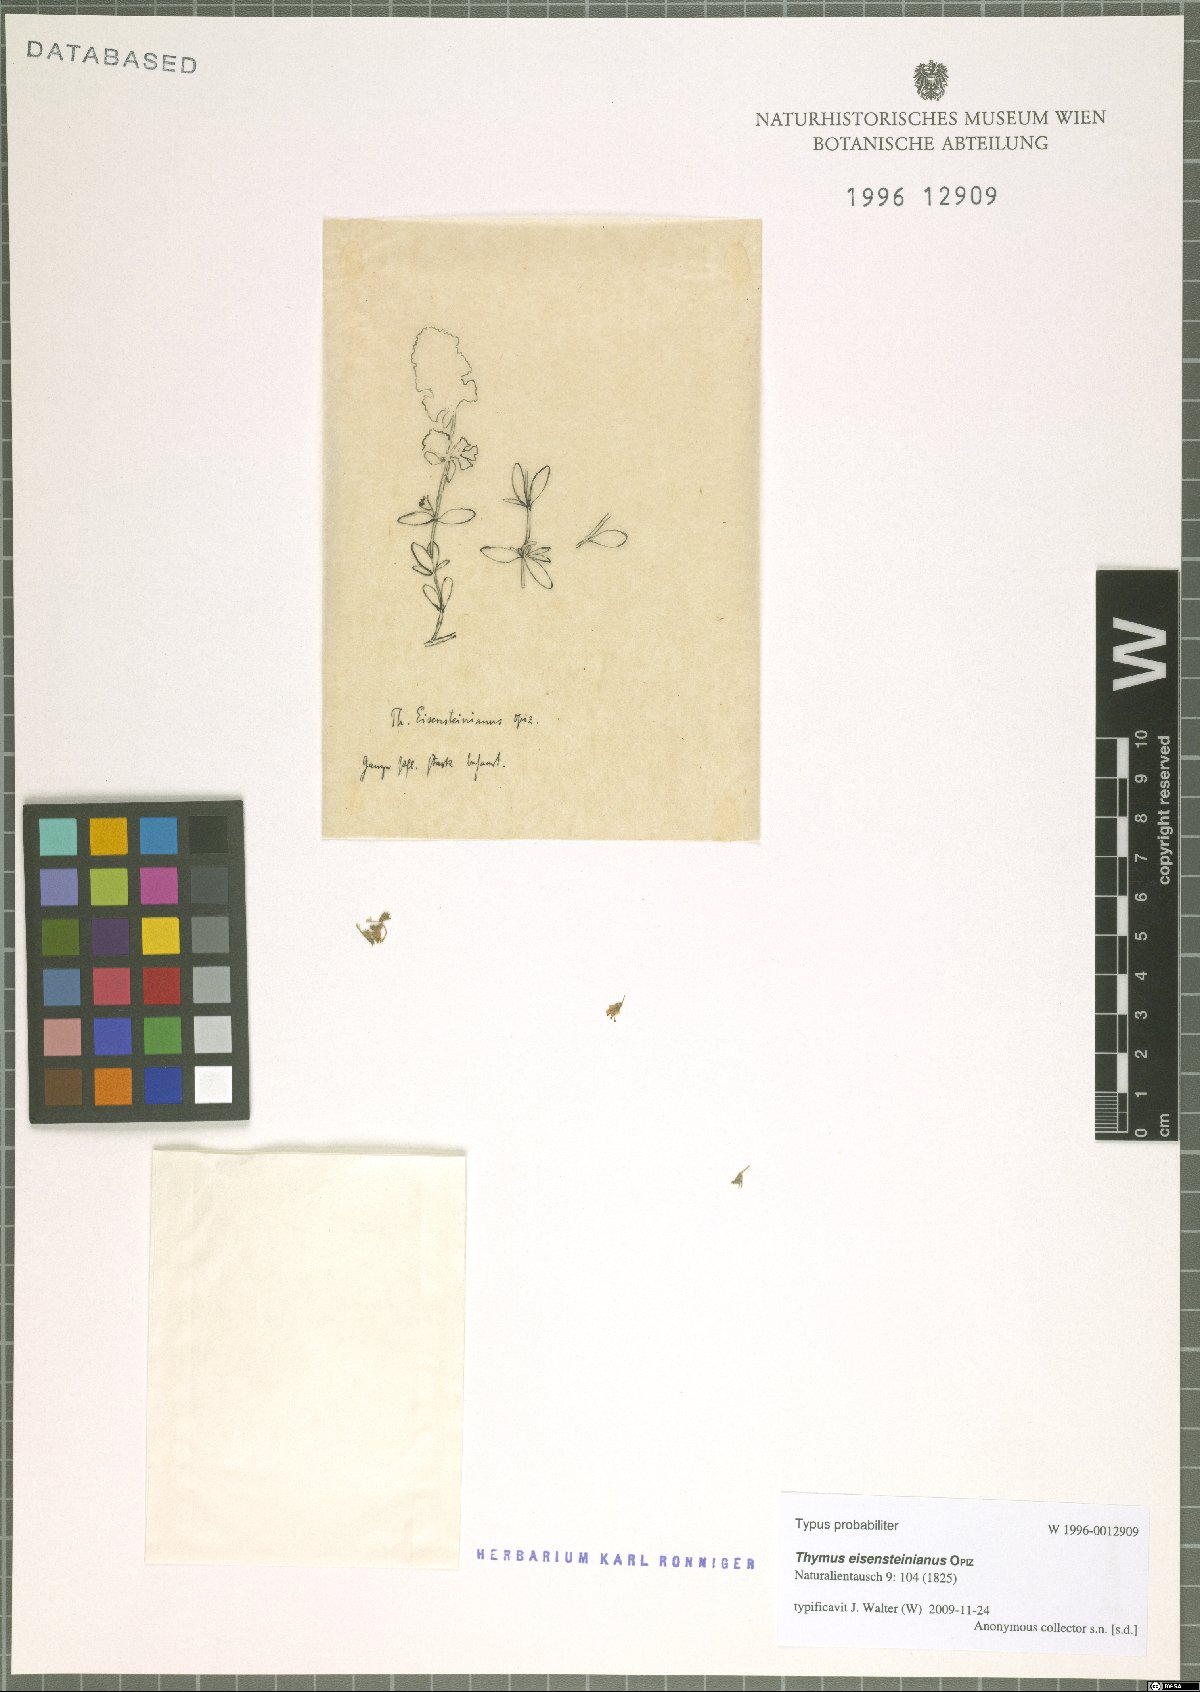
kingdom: Plantae
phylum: Tracheophyta
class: Magnoliopsida
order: Lamiales
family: Lamiaceae
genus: Thymus
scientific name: Thymus pannonicus
